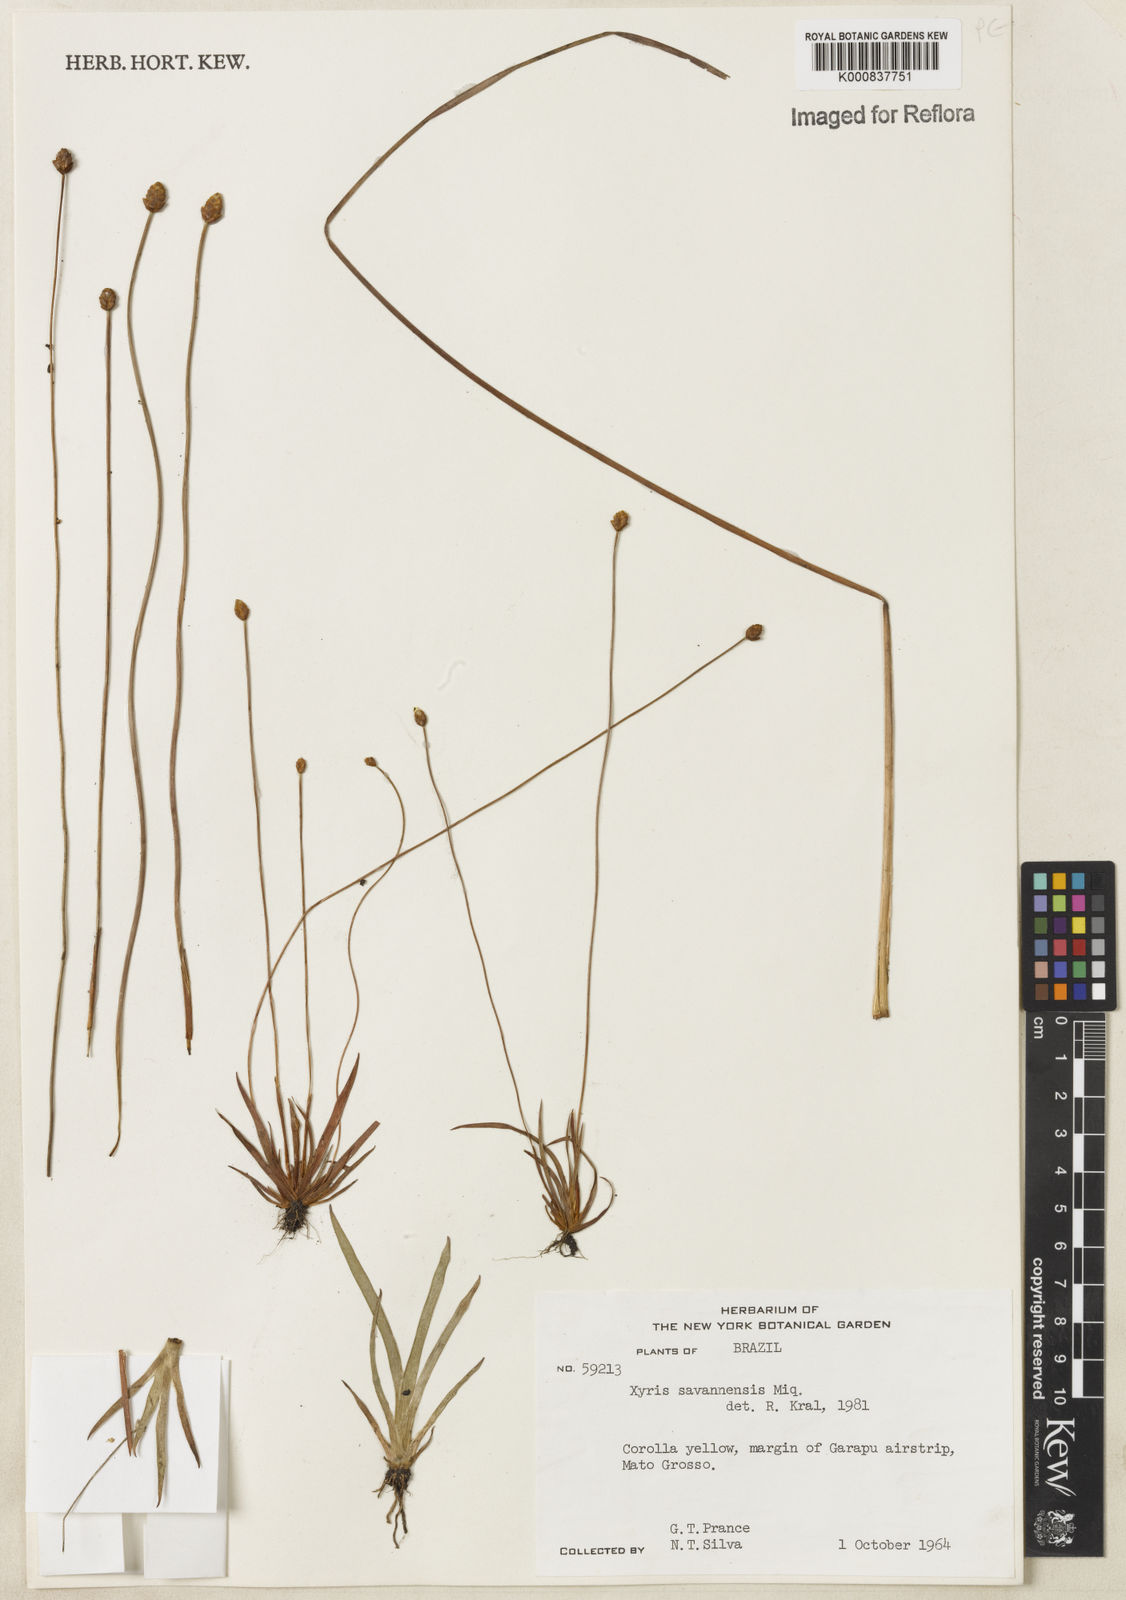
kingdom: Plantae
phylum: Tracheophyta
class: Liliopsida
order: Poales
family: Xyridaceae
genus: Xyris
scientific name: Xyris savanensis
